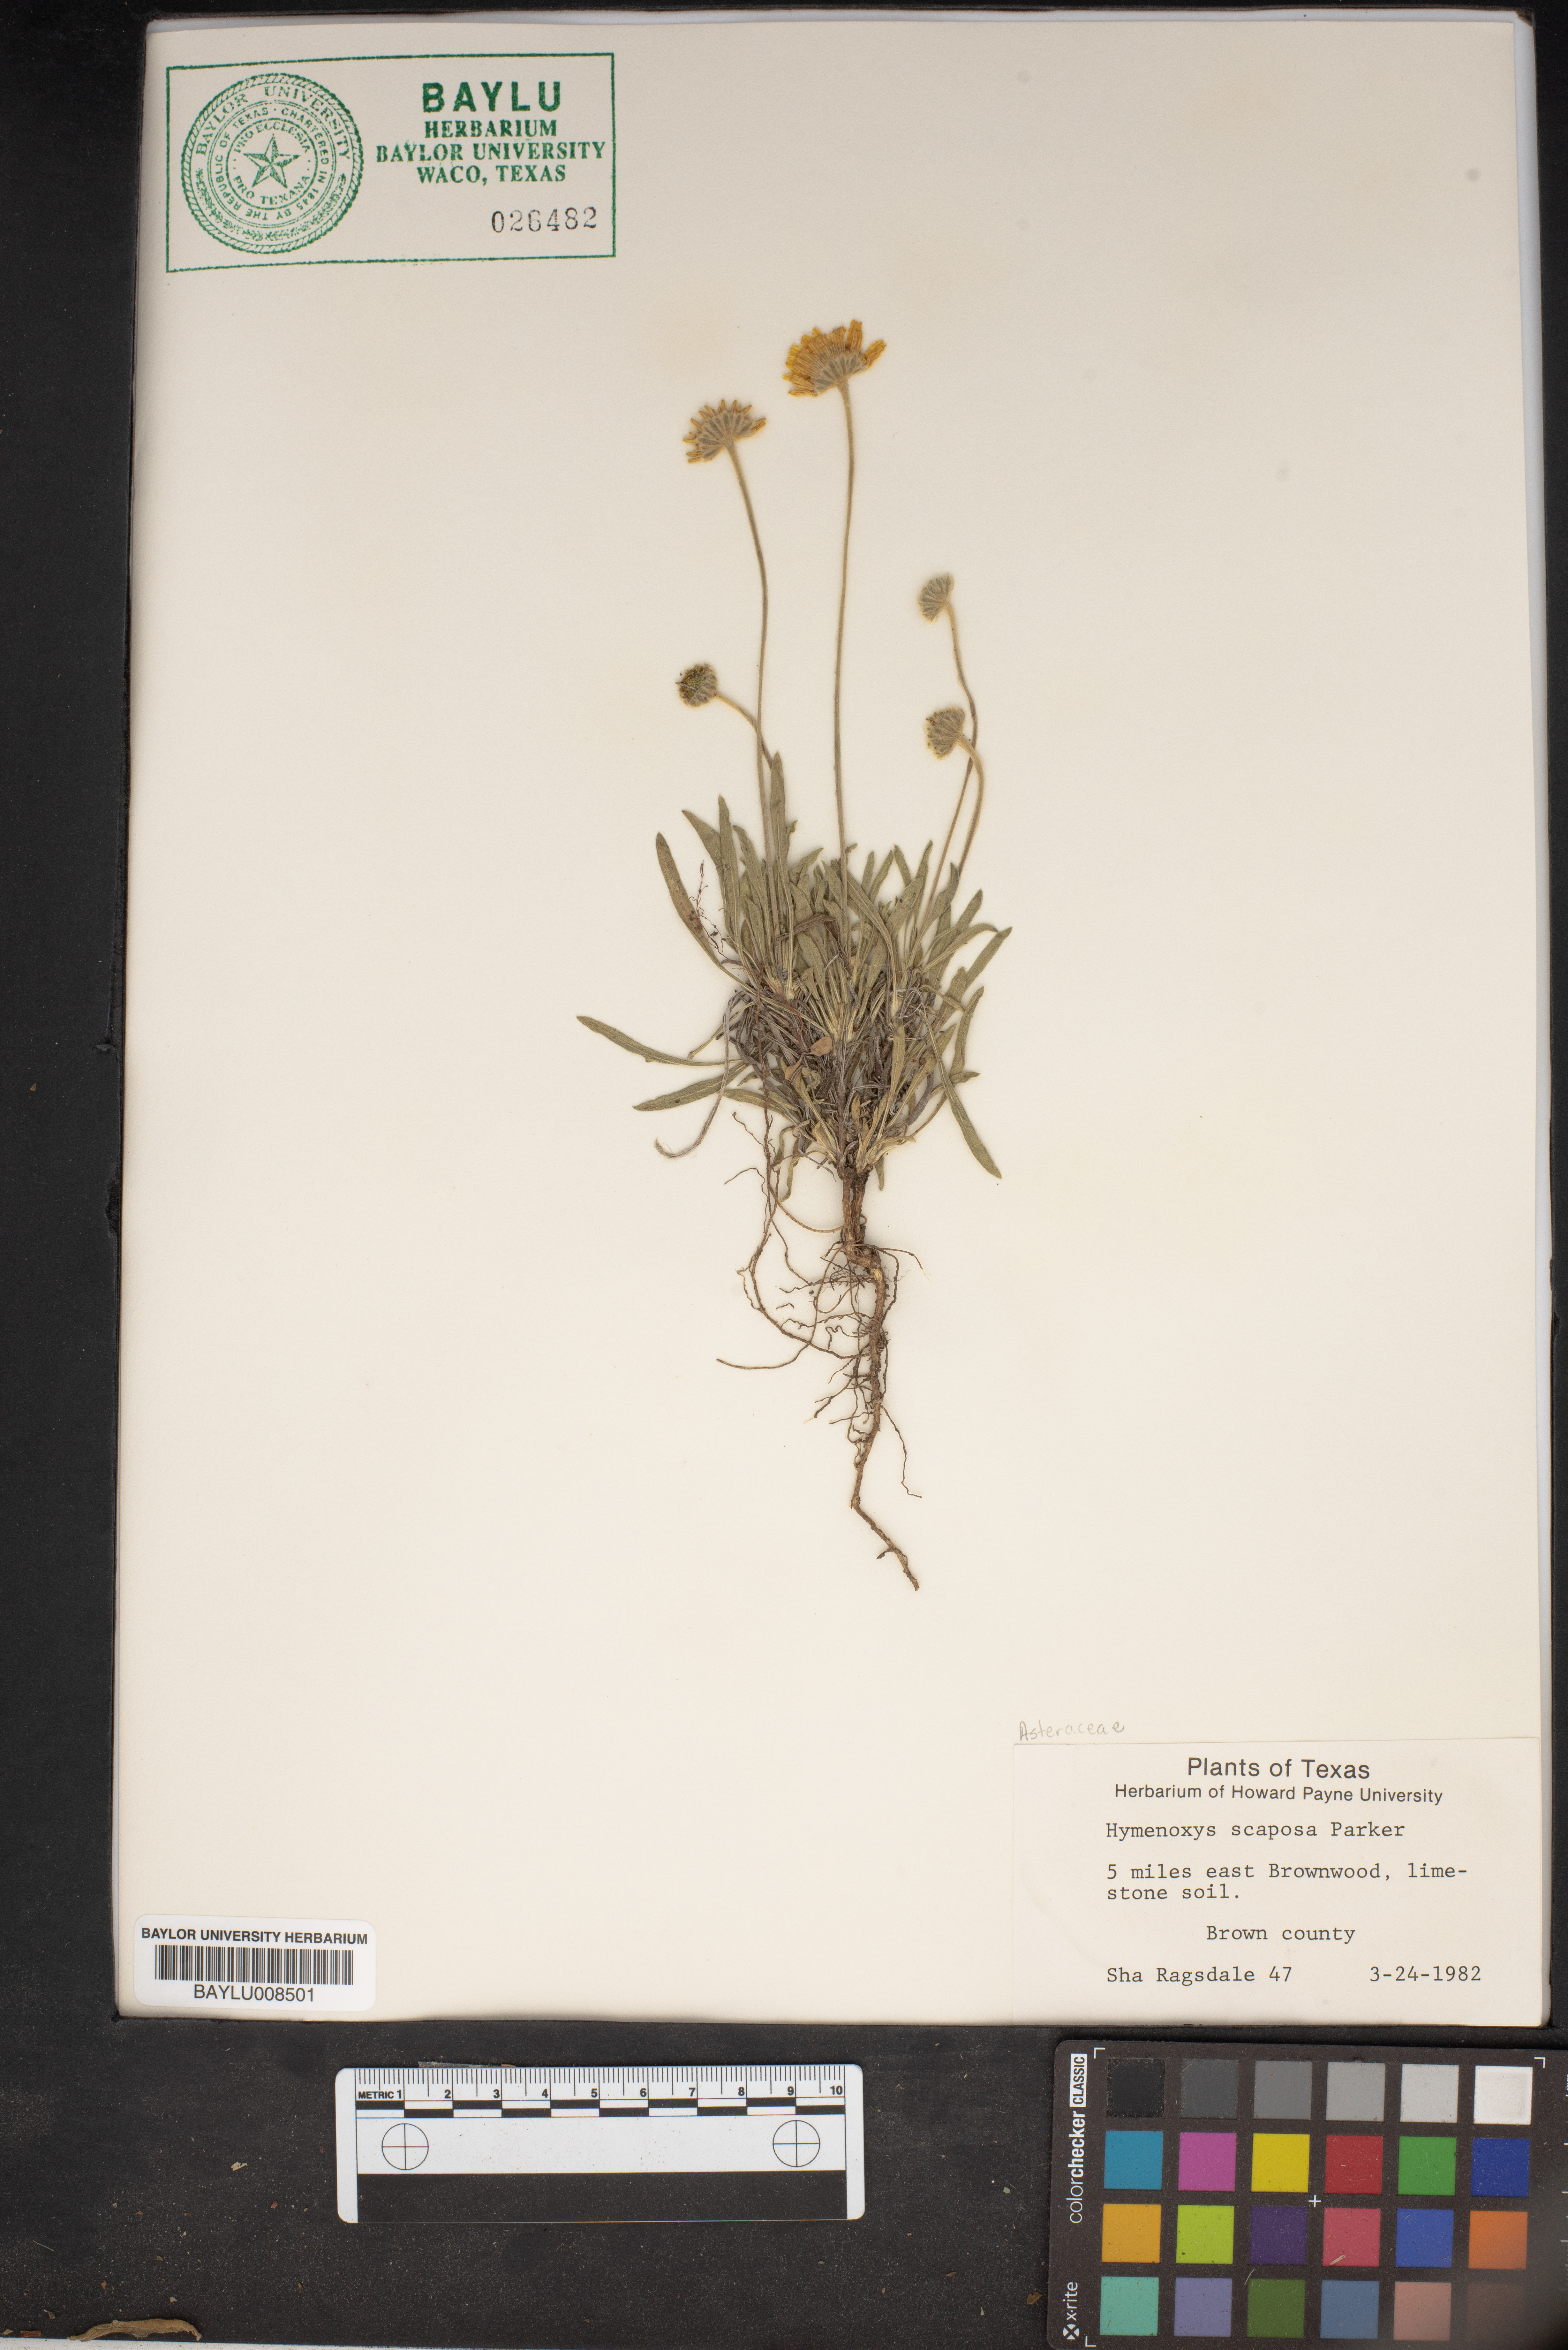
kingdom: Plantae
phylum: Tracheophyta
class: Magnoliopsida
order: Asterales
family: Asteraceae
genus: Tetraneuris
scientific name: Tetraneuris scaposa
